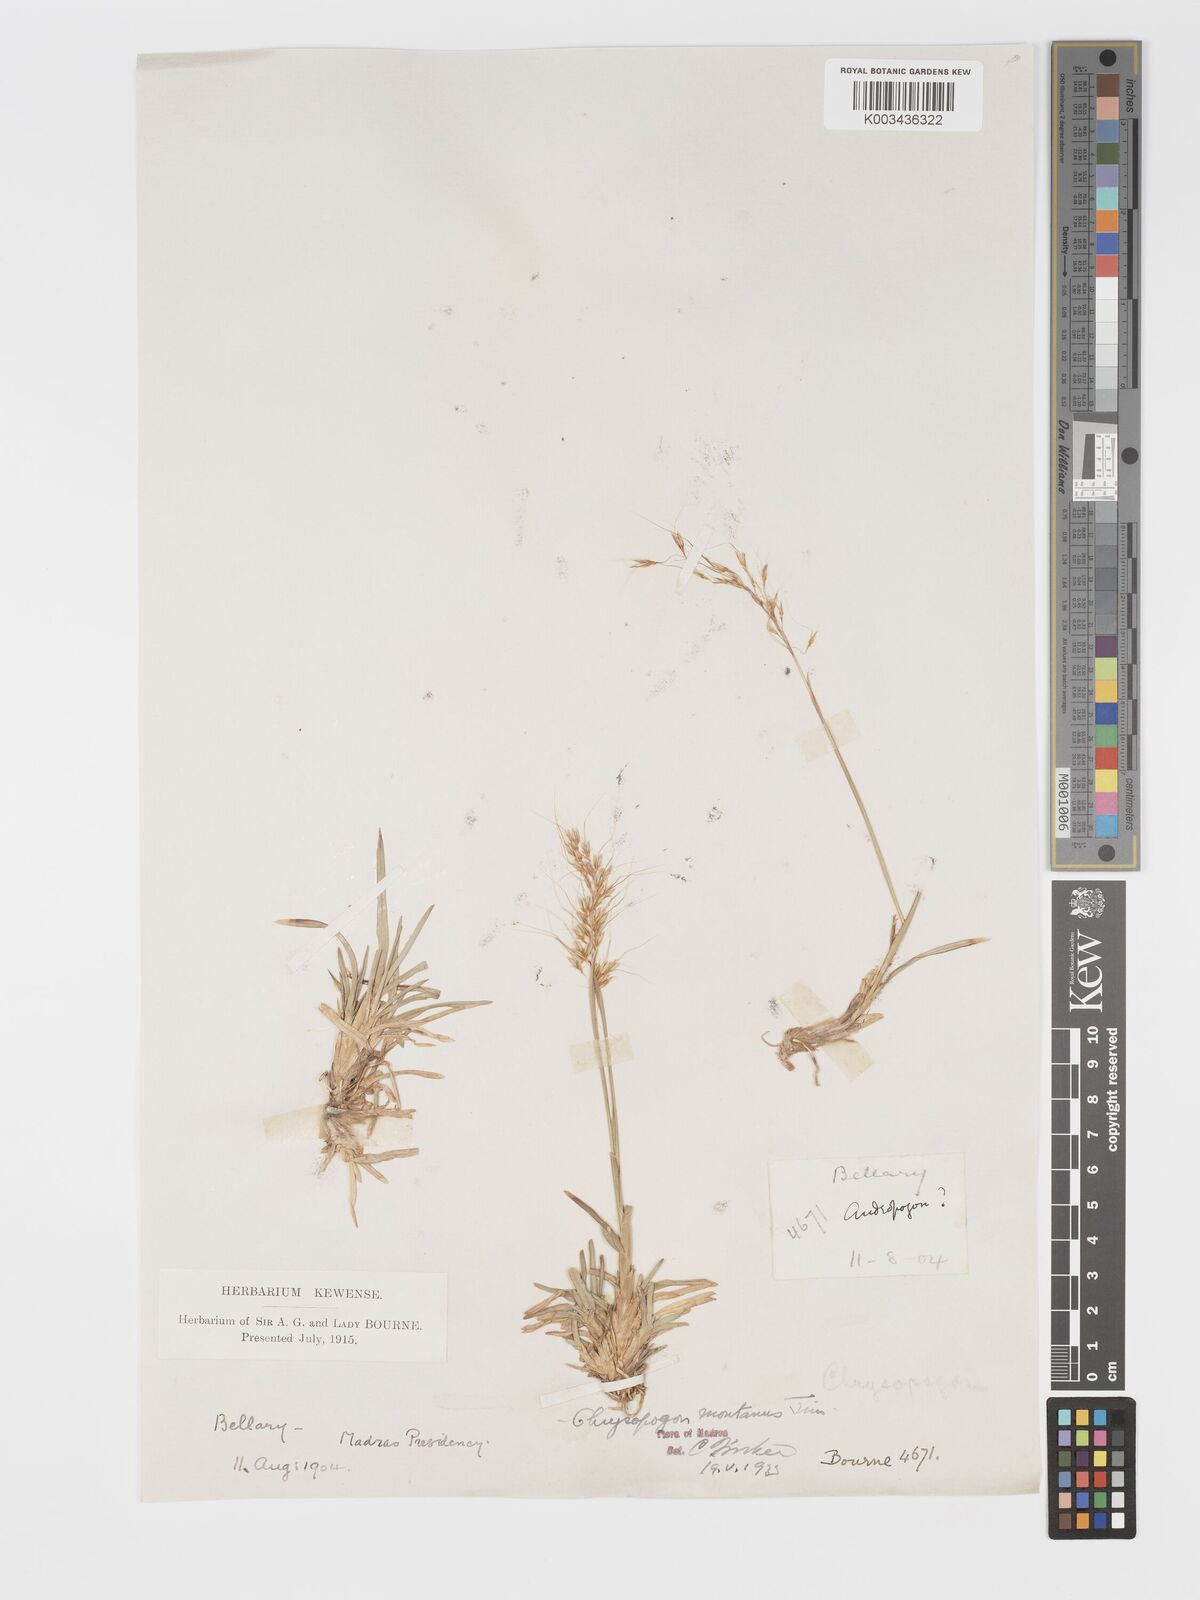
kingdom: Plantae
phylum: Tracheophyta
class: Liliopsida
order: Poales
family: Poaceae
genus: Chrysopogon
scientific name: Chrysopogon fulvus
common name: Red false beardgrass
